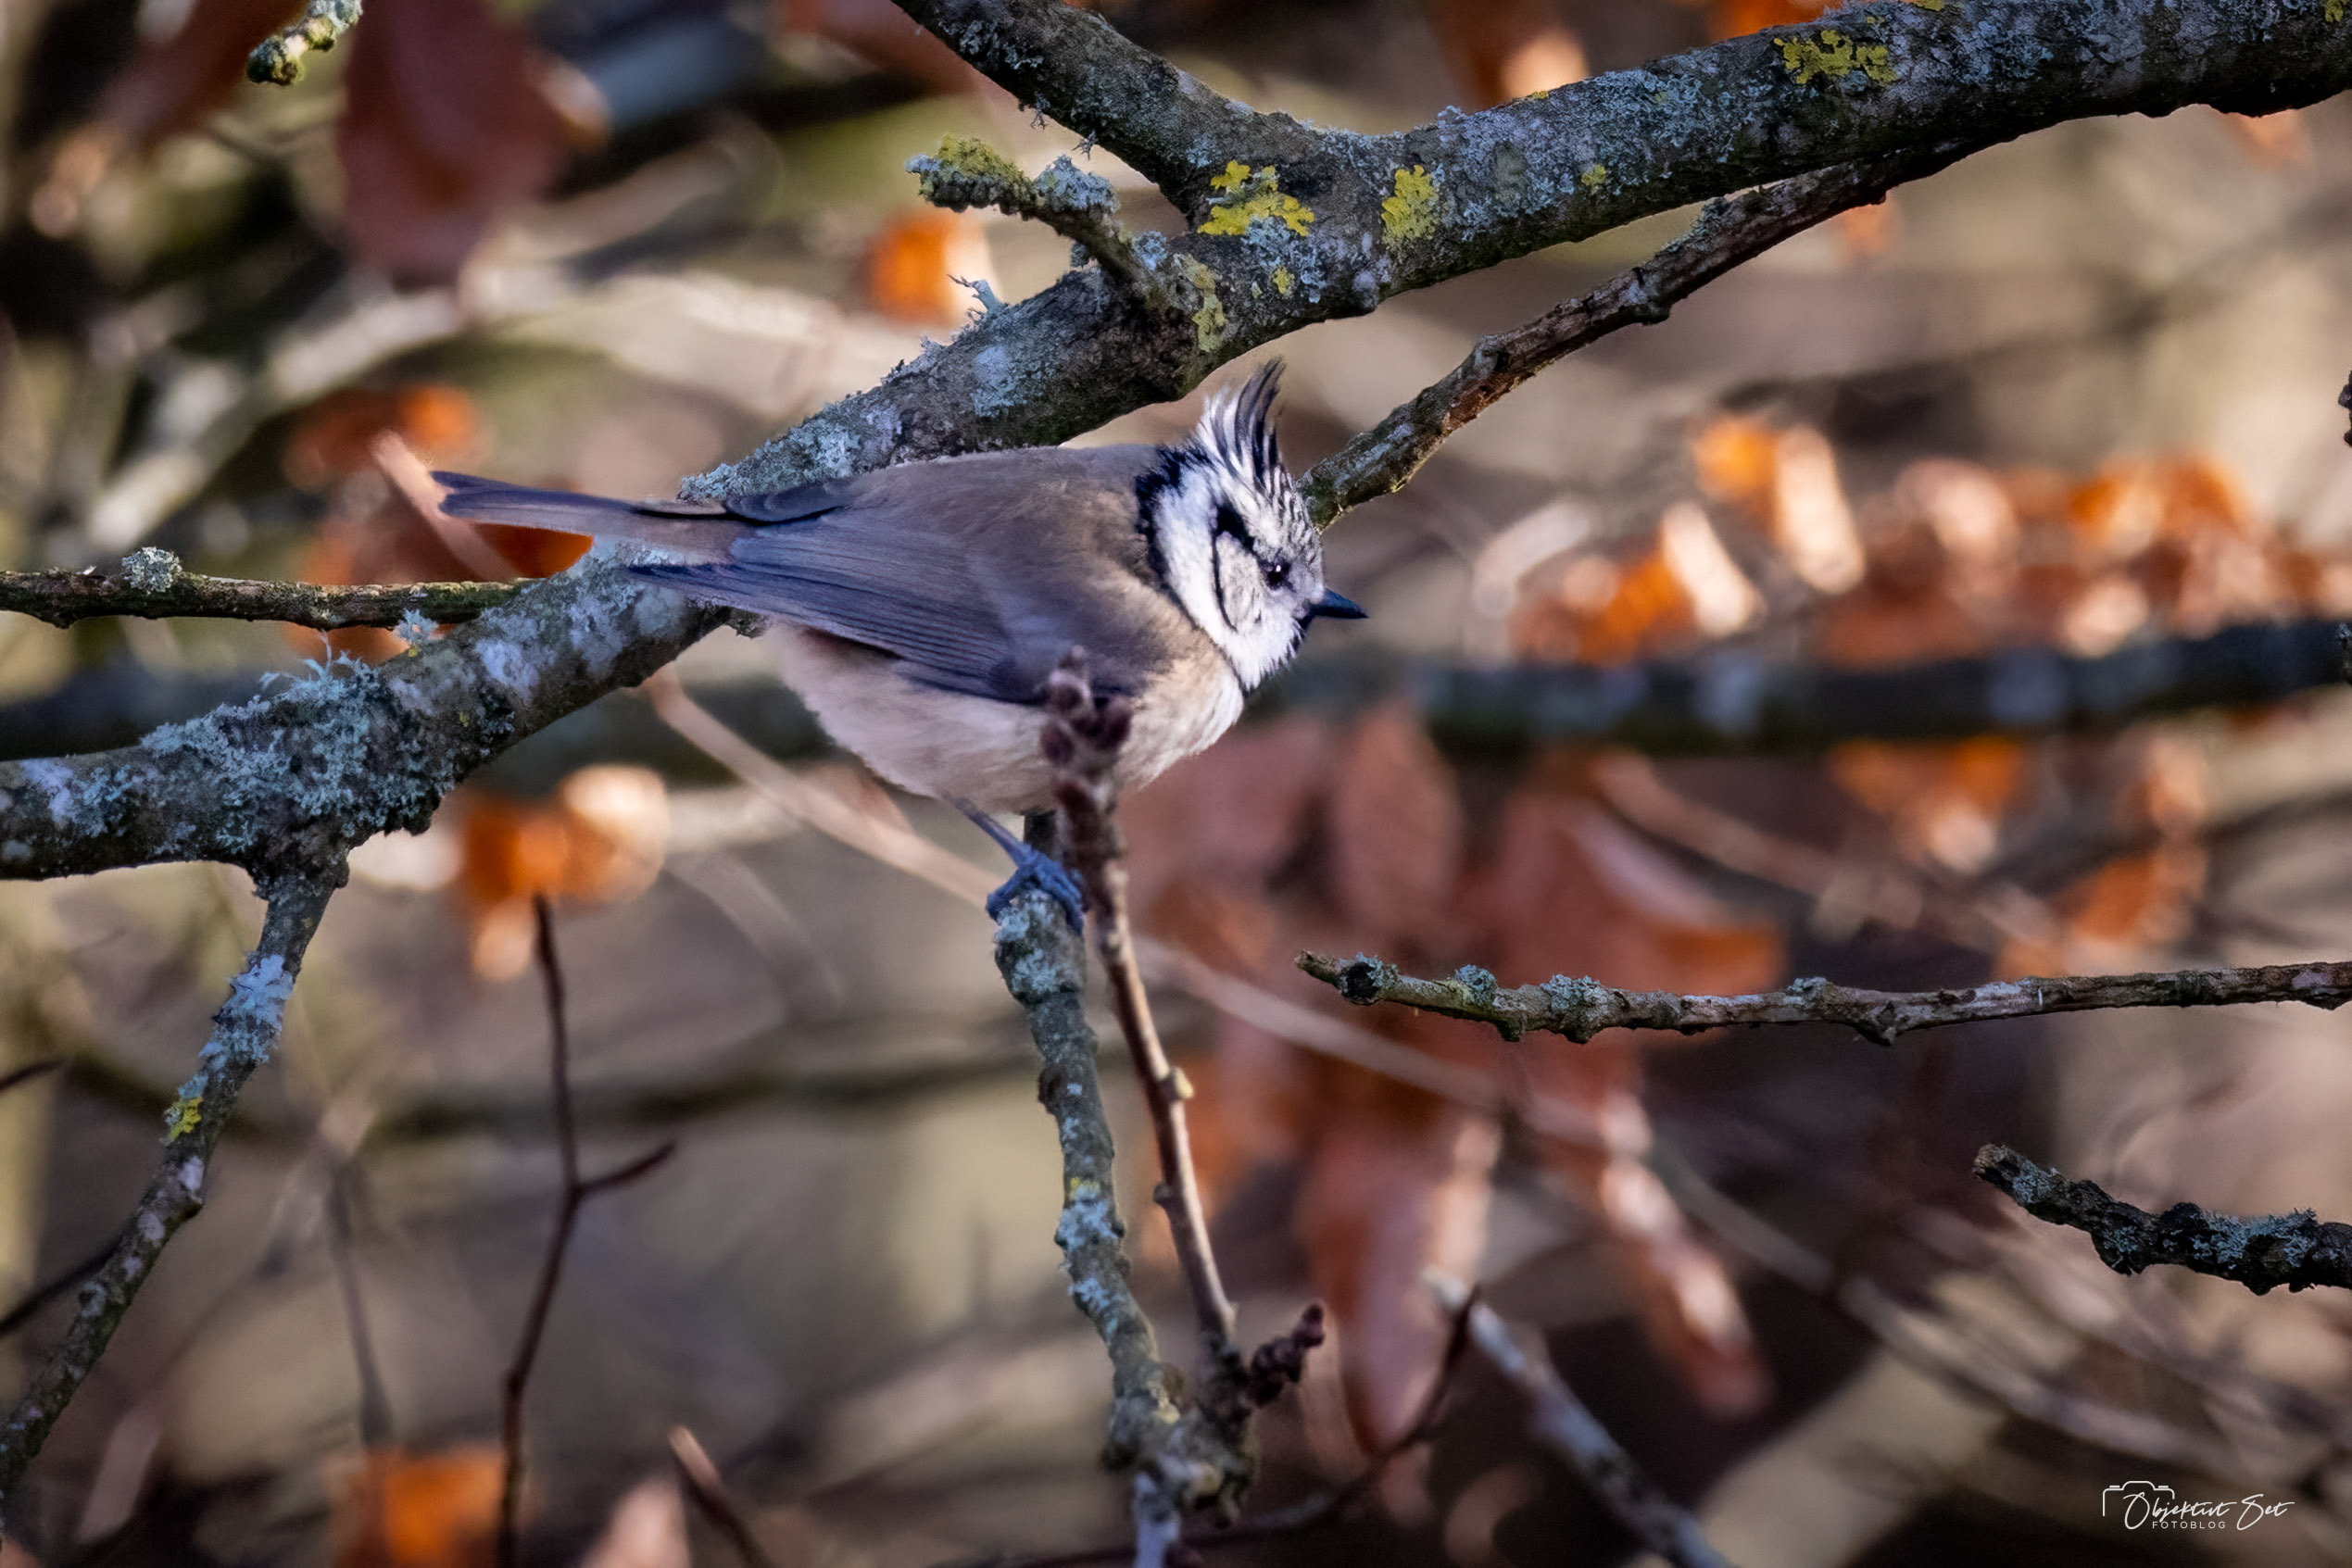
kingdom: Animalia
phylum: Chordata
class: Aves
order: Passeriformes
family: Paridae
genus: Lophophanes
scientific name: Lophophanes cristatus
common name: Topmejse
